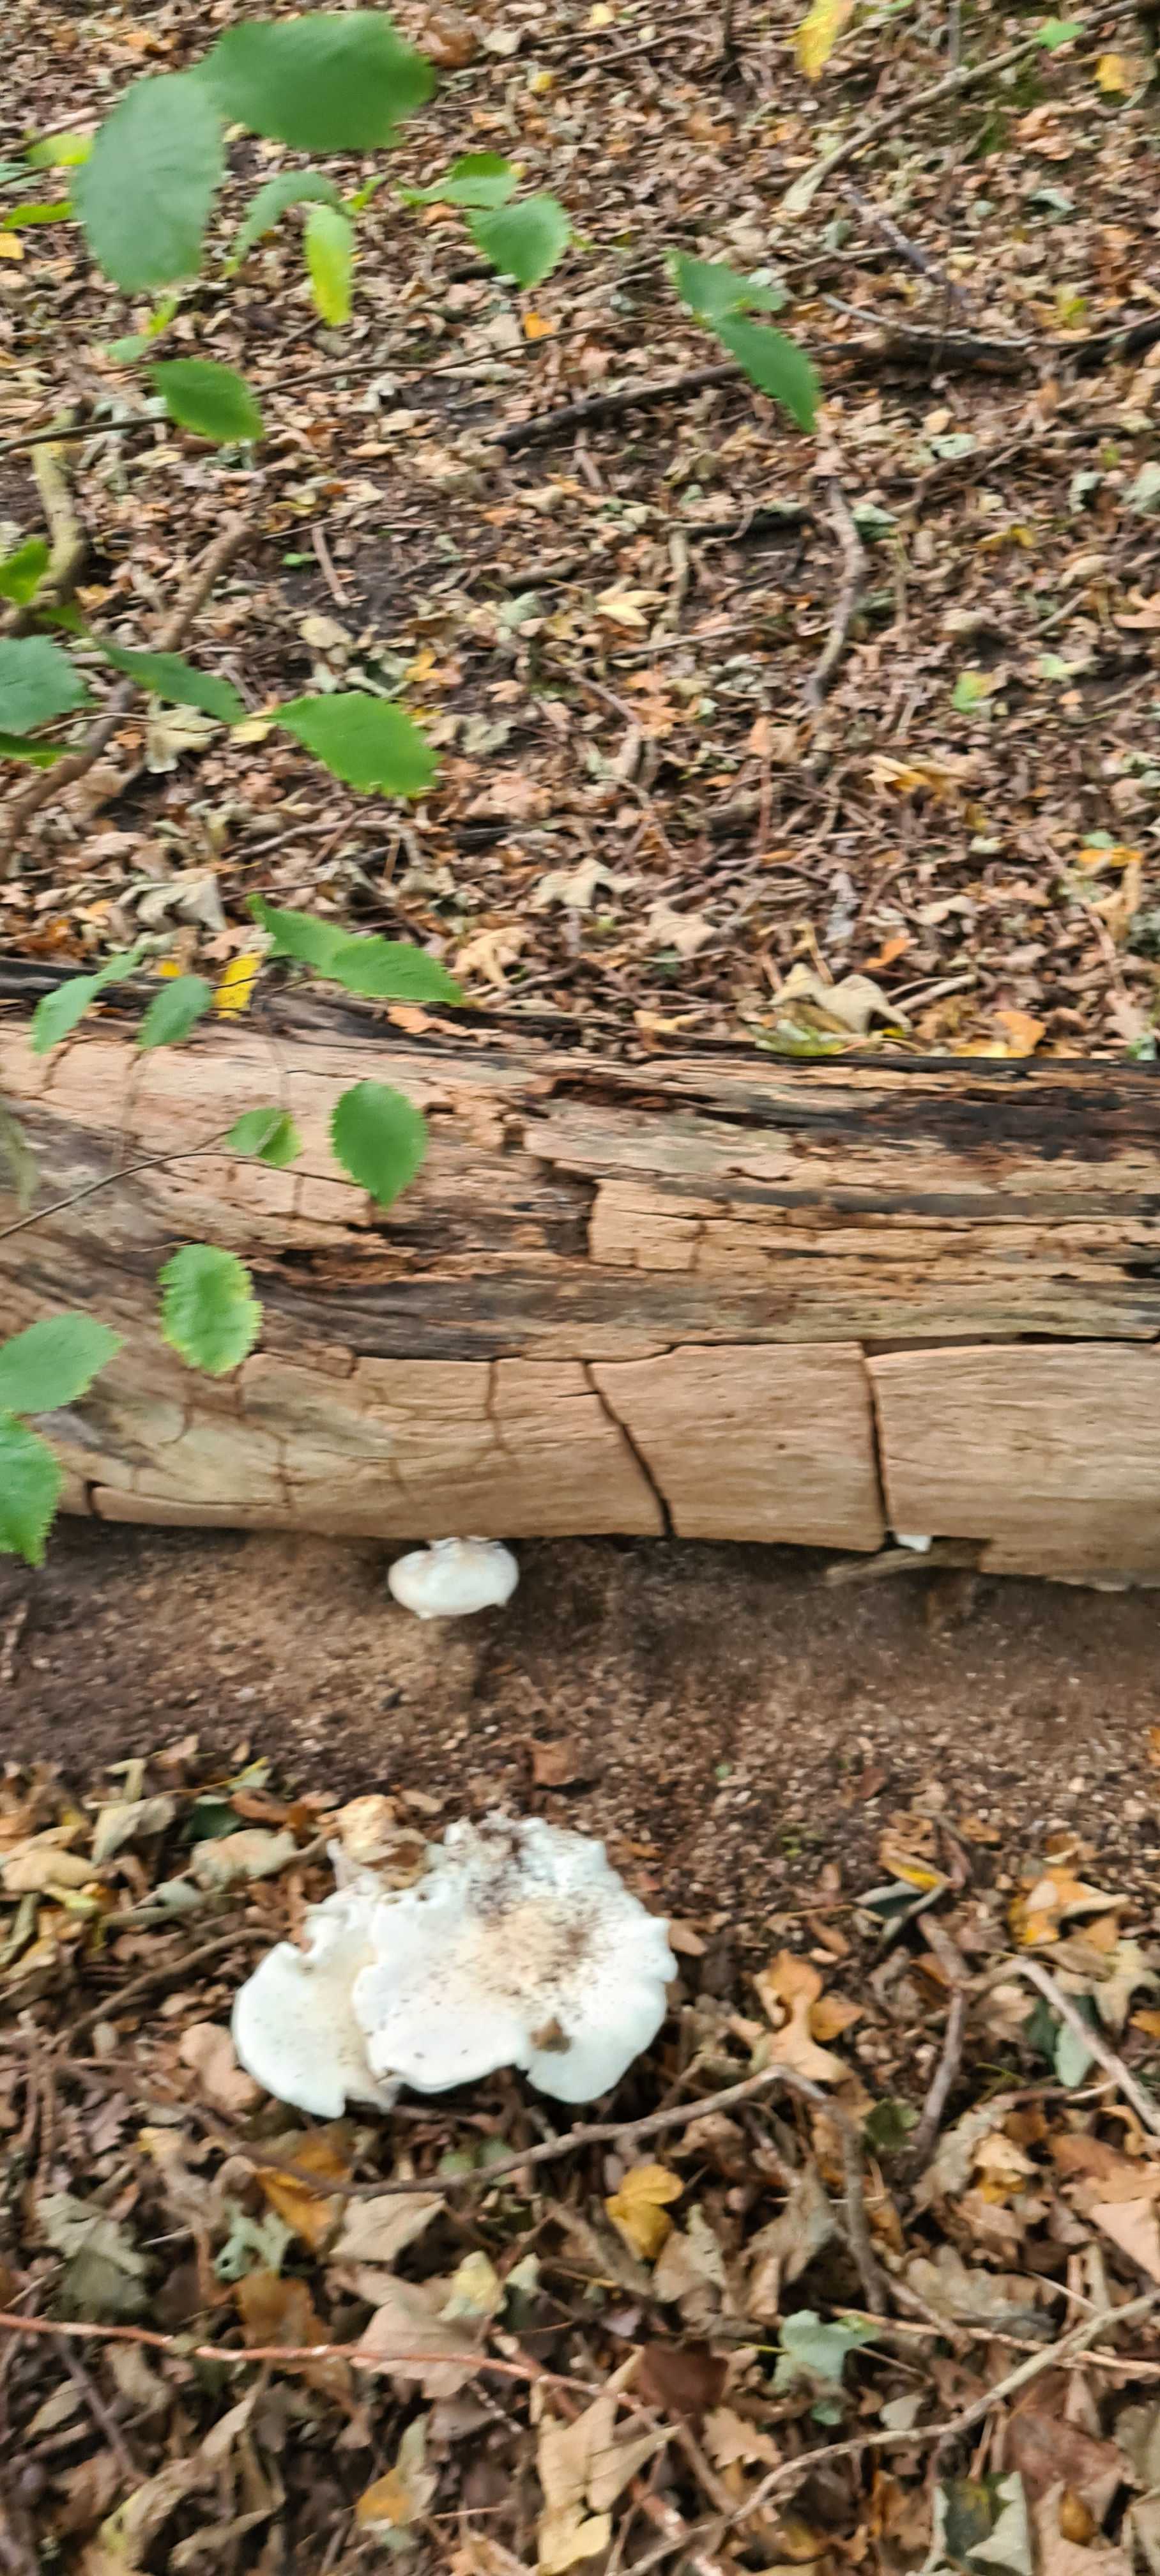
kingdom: Fungi
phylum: Basidiomycota
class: Agaricomycetes
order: Agaricales
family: Pleurotaceae
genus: Pleurotus
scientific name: Pleurotus dryinus
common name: korkagtig østershat
